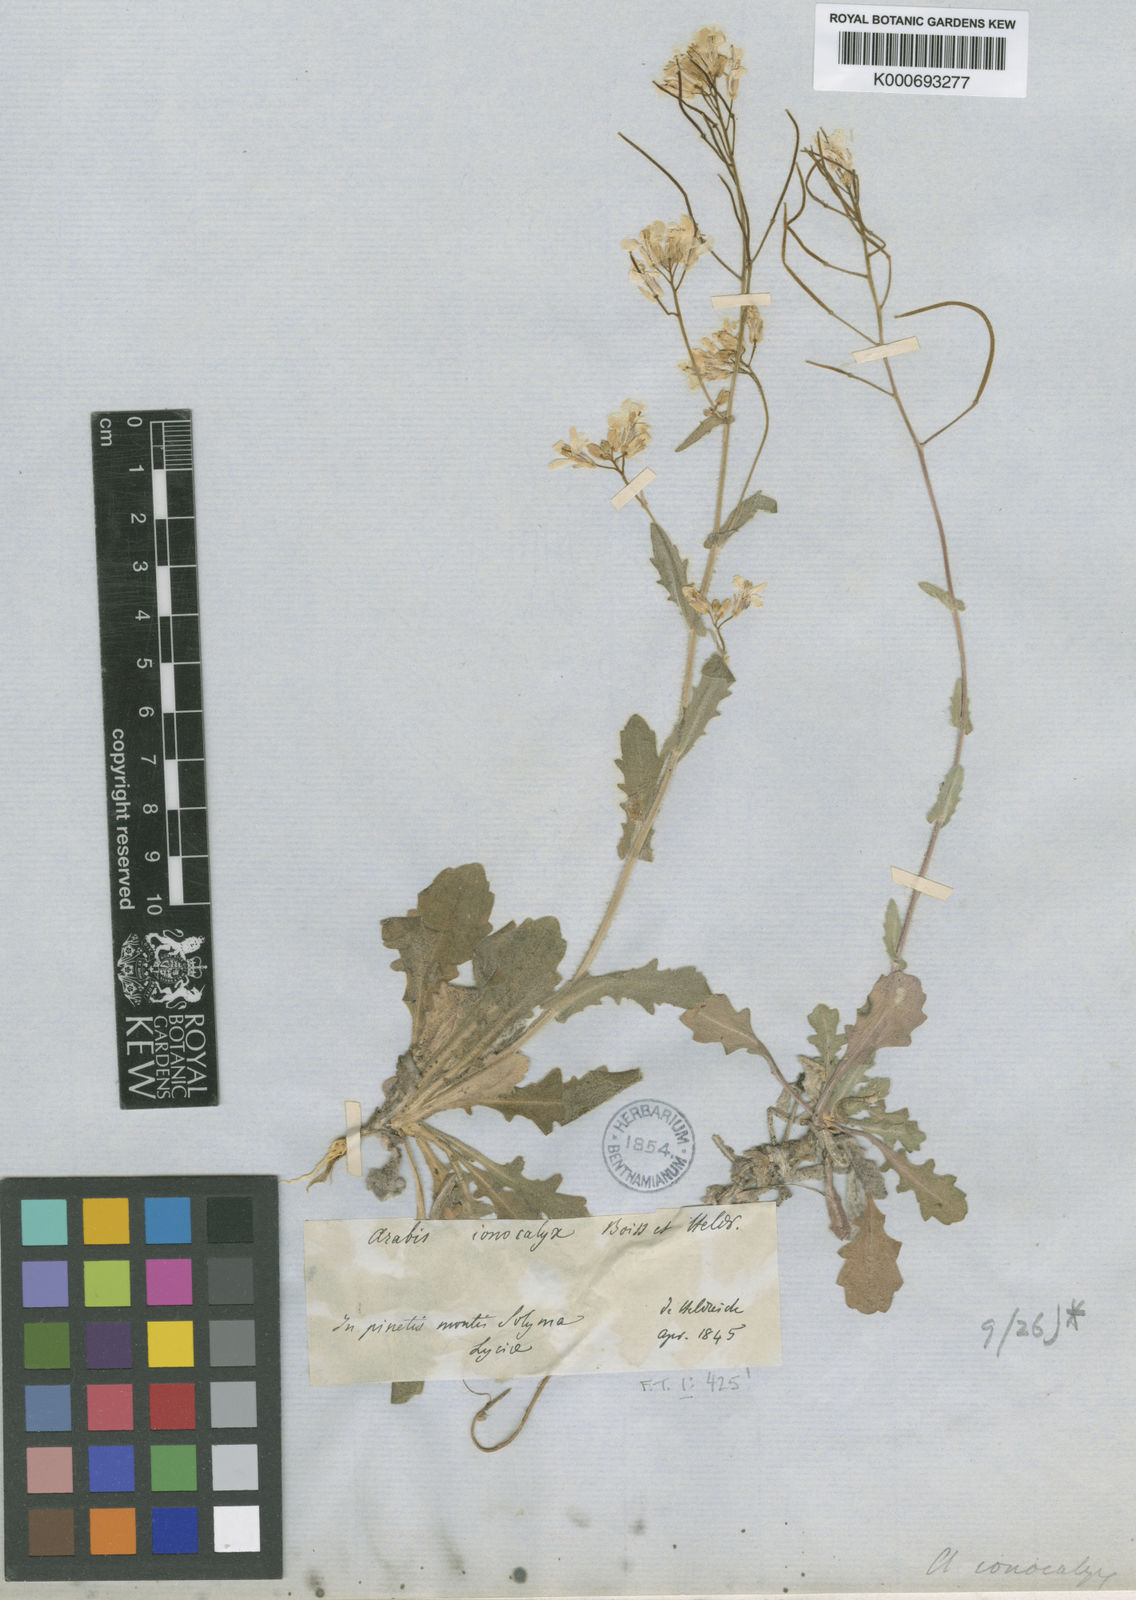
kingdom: Plantae
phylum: Tracheophyta
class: Magnoliopsida
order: Brassicales
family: Brassicaceae
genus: Arabis
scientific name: Arabis ionocalyx
